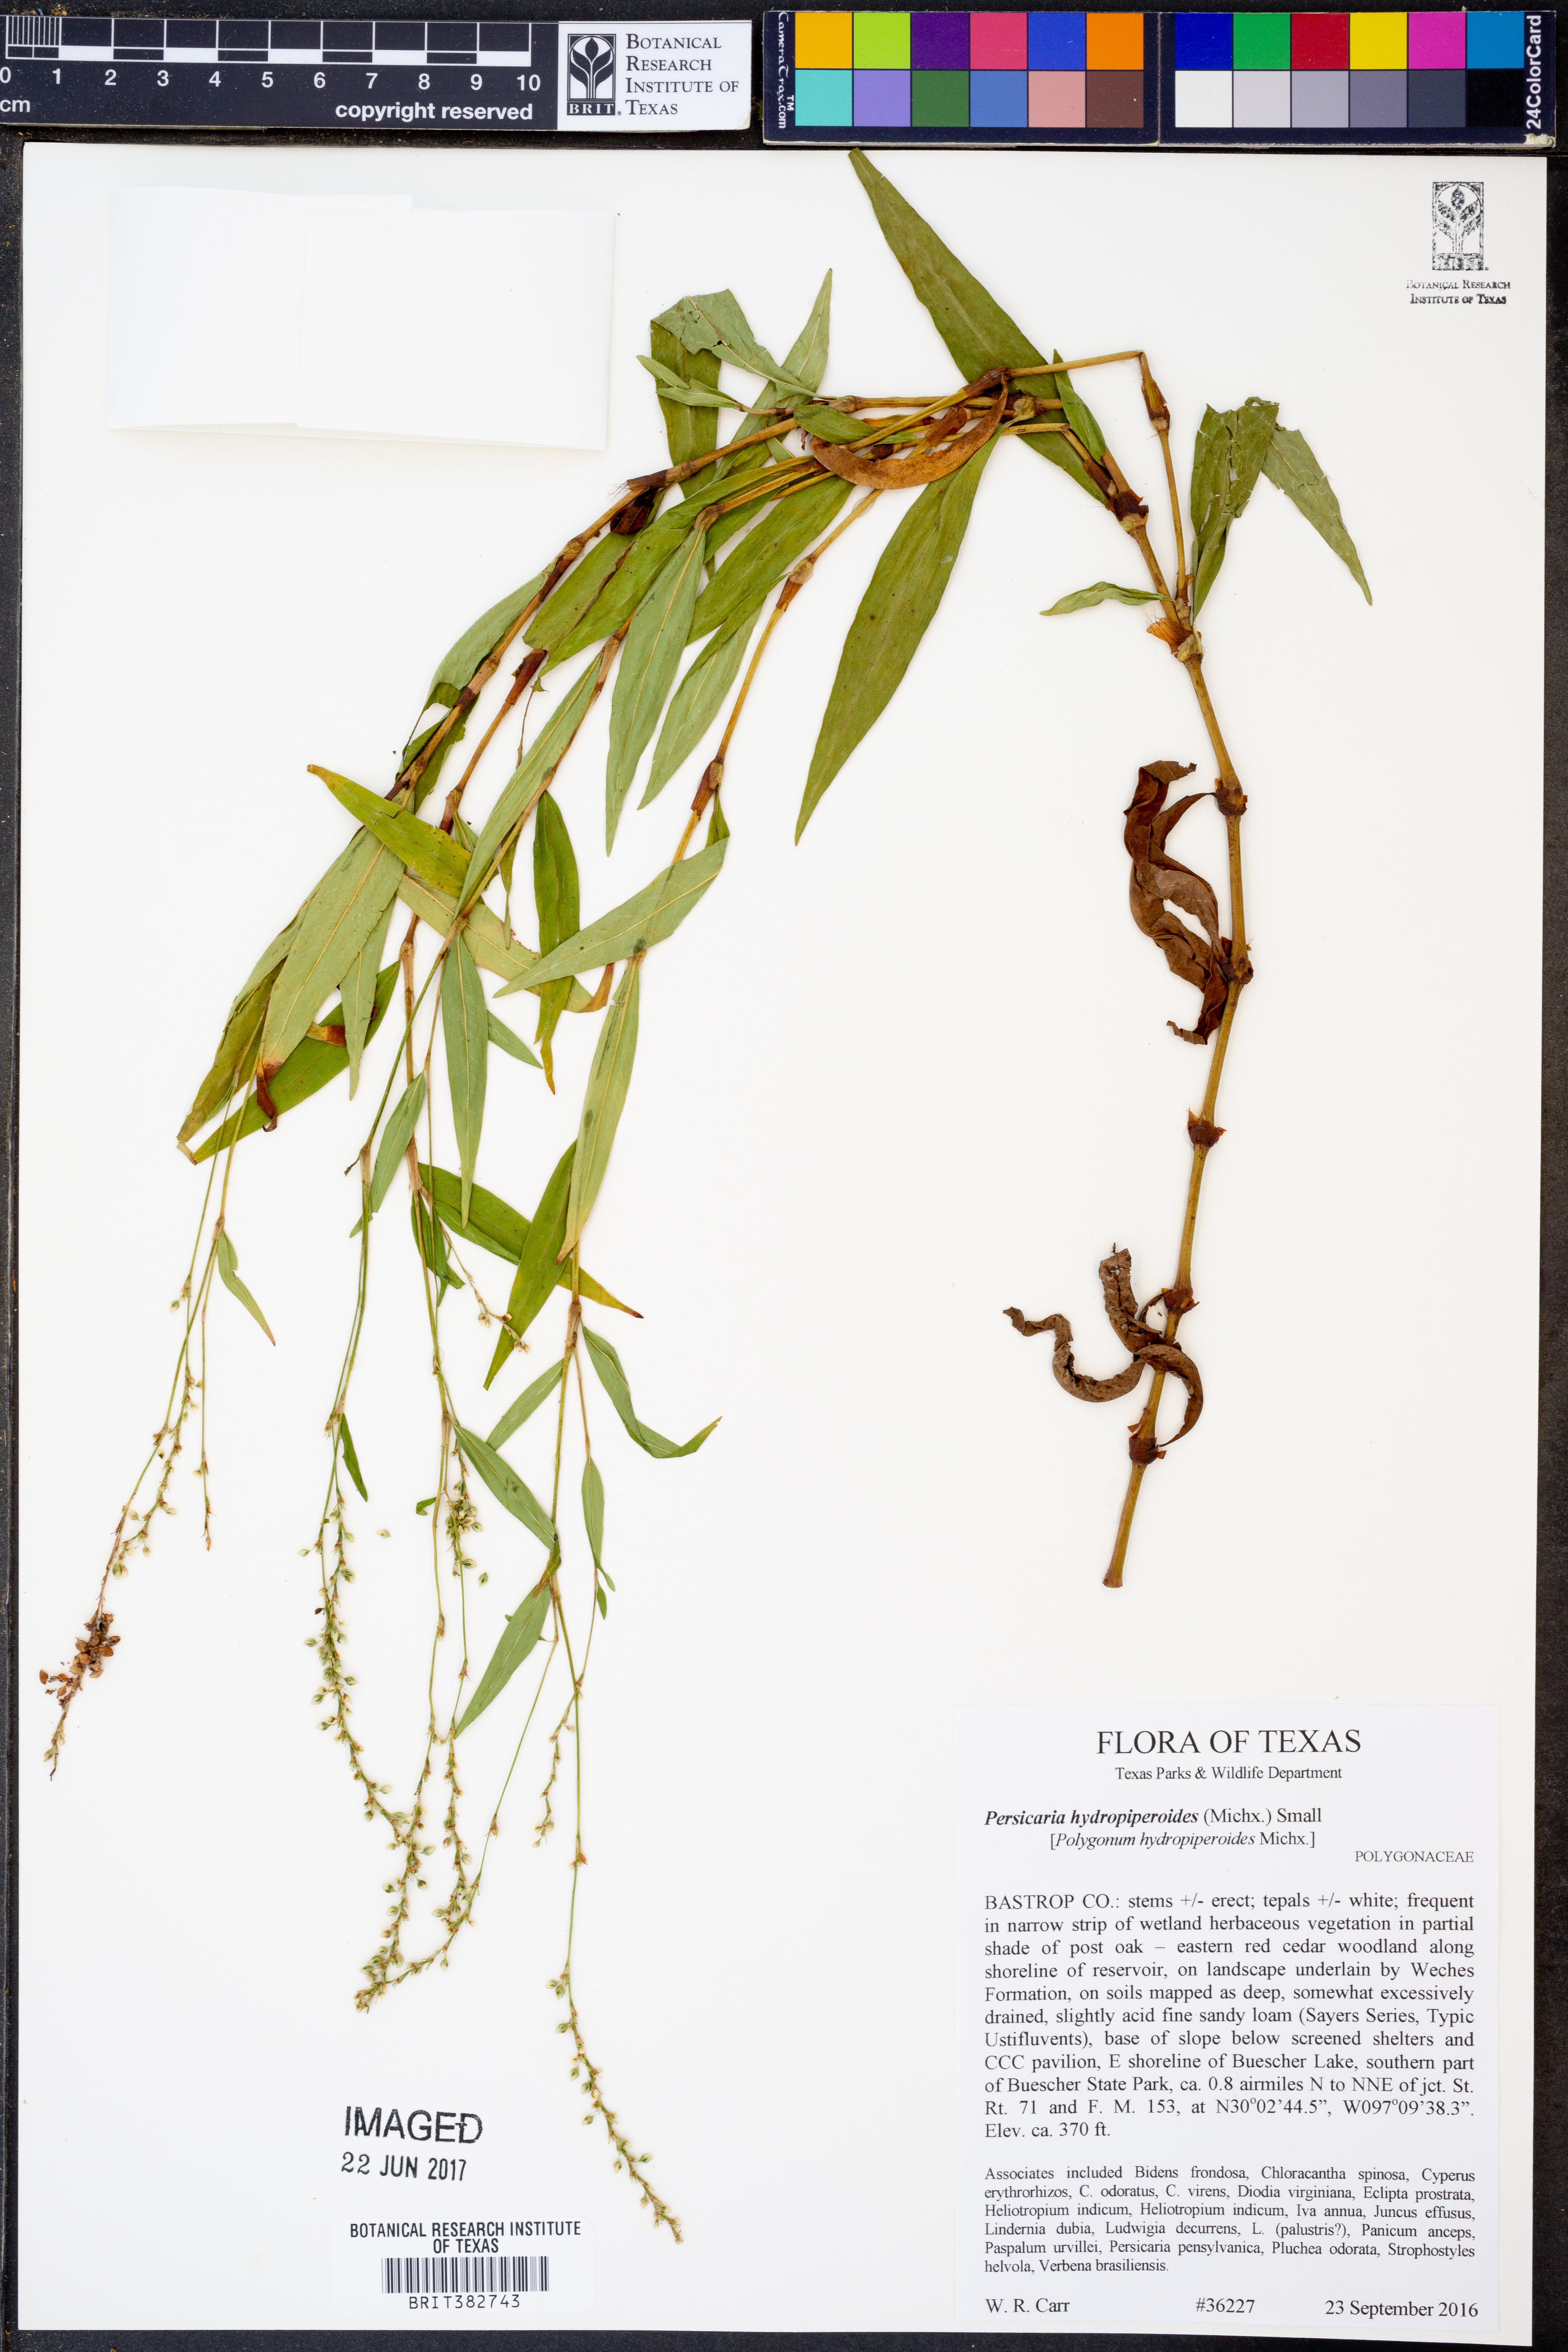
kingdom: Plantae
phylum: Tracheophyta
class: Magnoliopsida
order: Caryophyllales
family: Polygonaceae
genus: Persicaria
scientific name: Persicaria hydropiperoides
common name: Swamp smartweed
